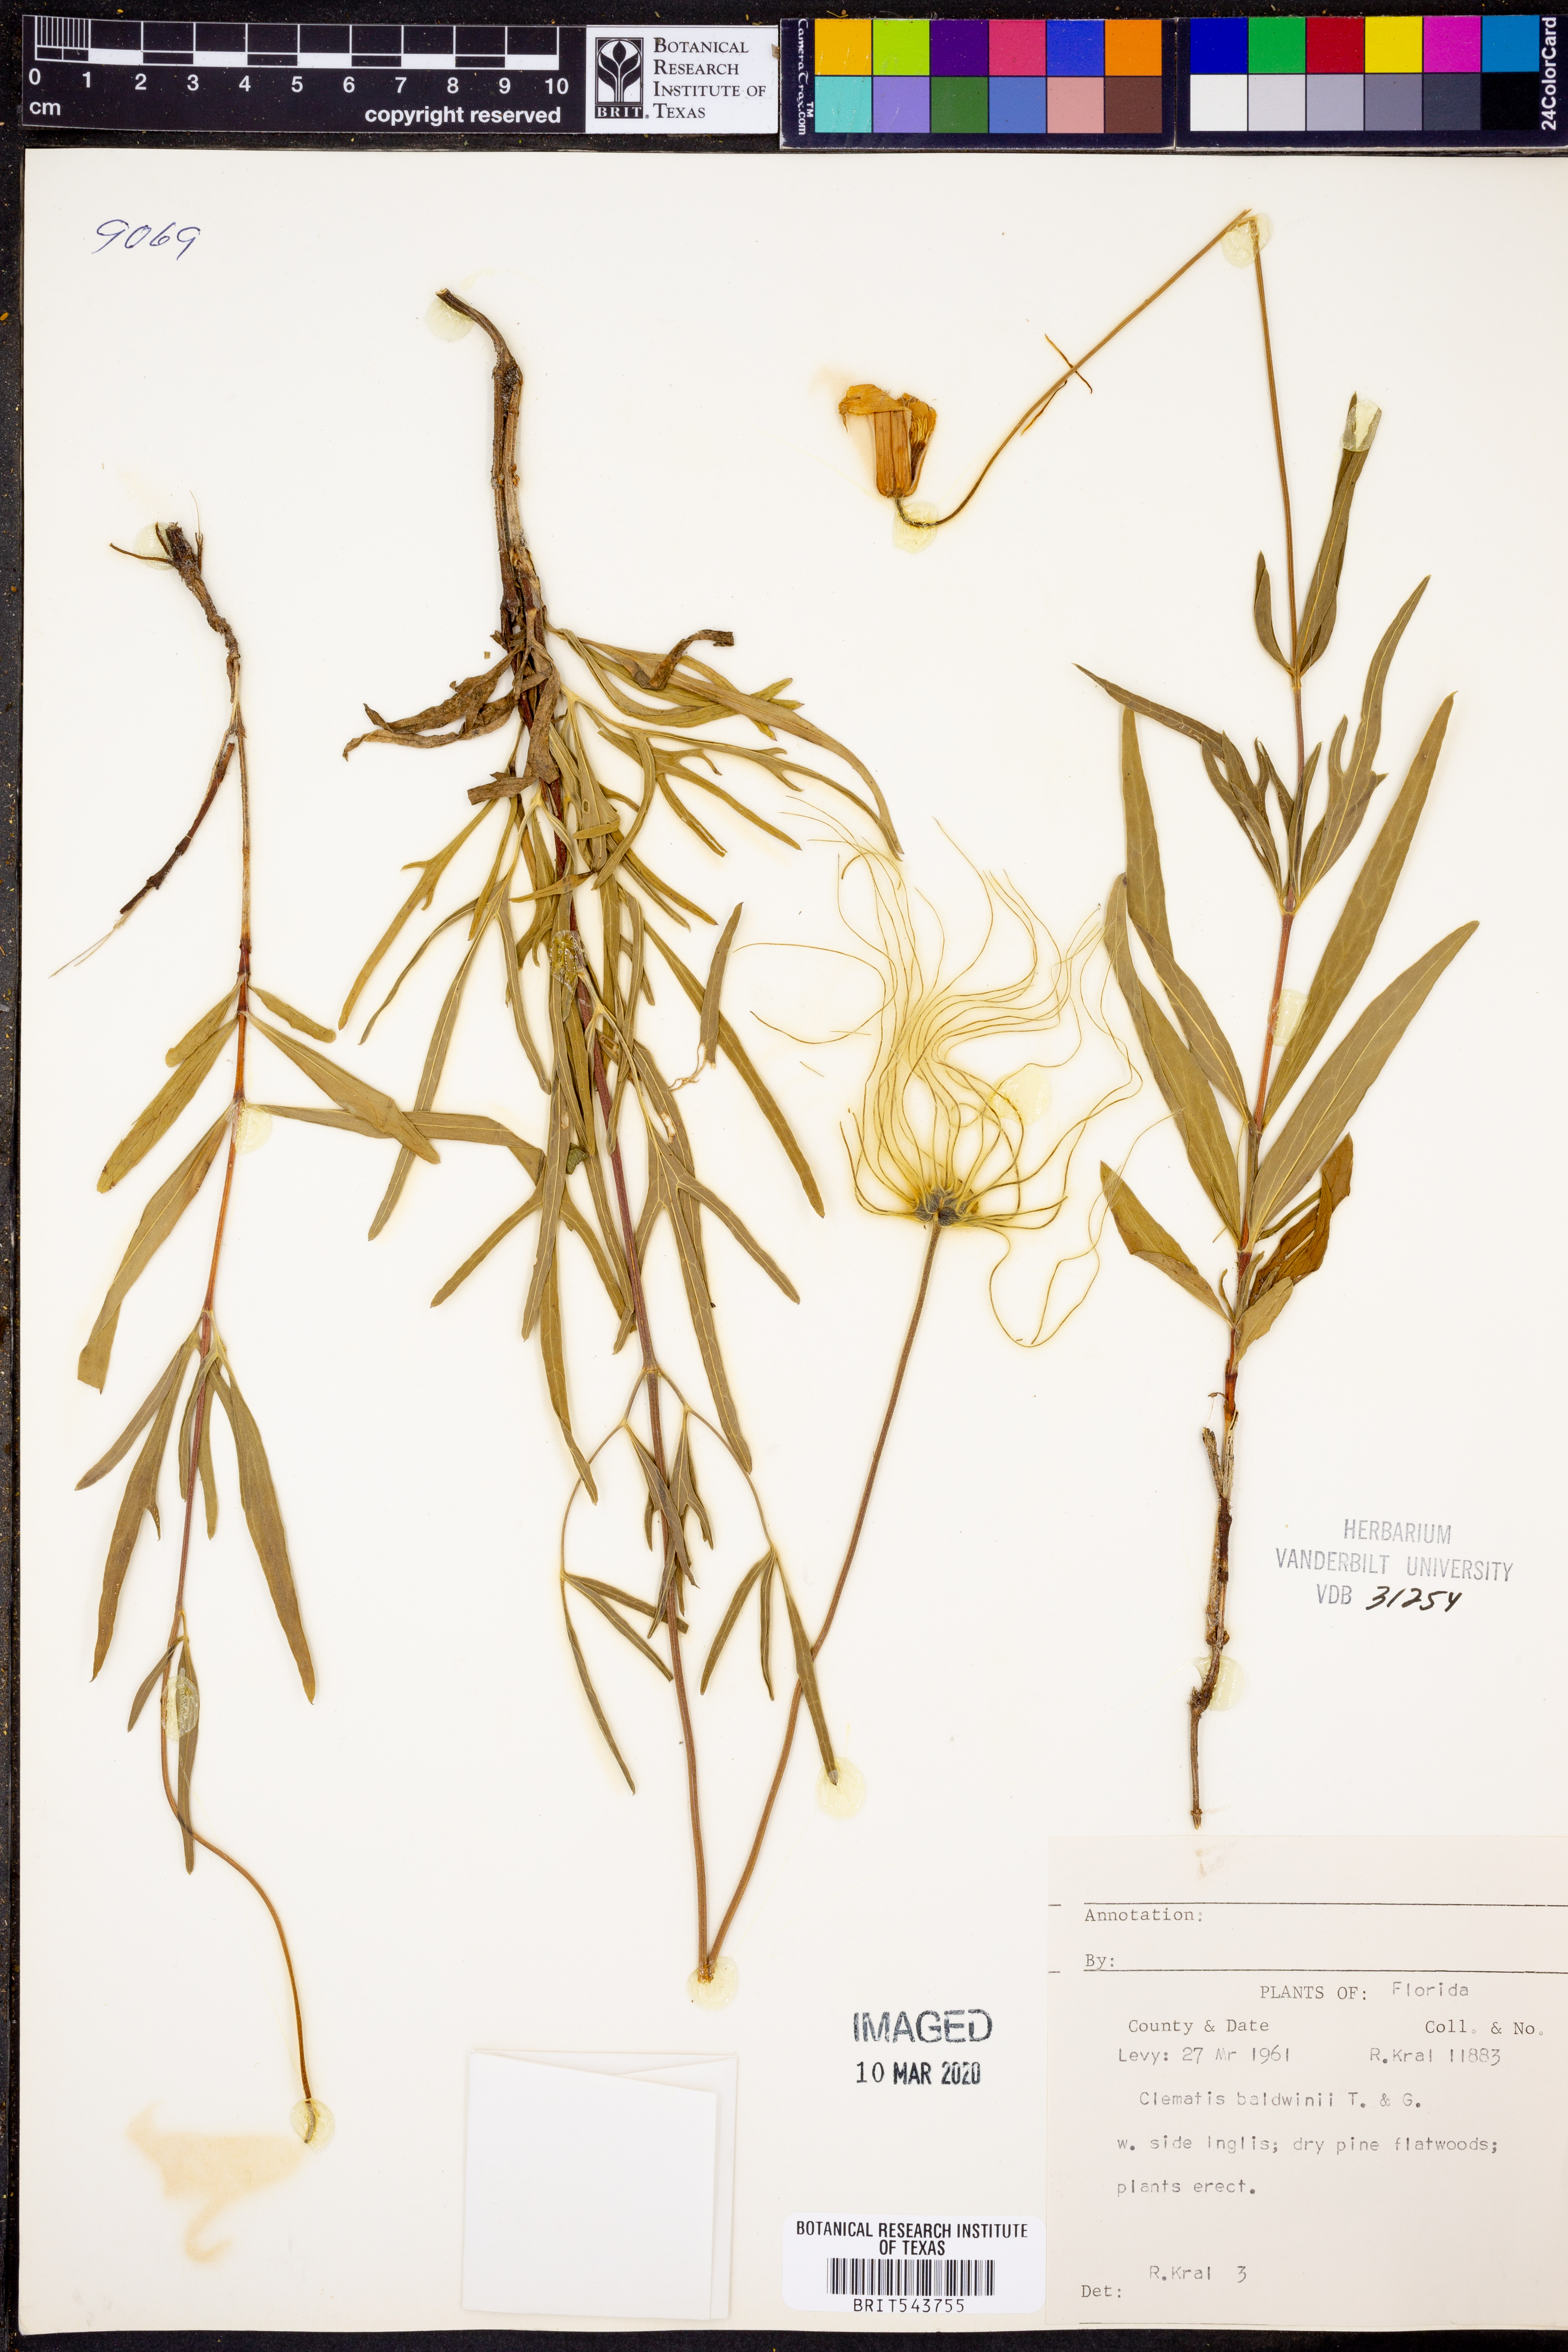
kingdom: Plantae
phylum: Tracheophyta
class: Magnoliopsida
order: Ranunculales
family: Ranunculaceae
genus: Clematis
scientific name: Clematis baldwinii
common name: Pine-hyacinth
